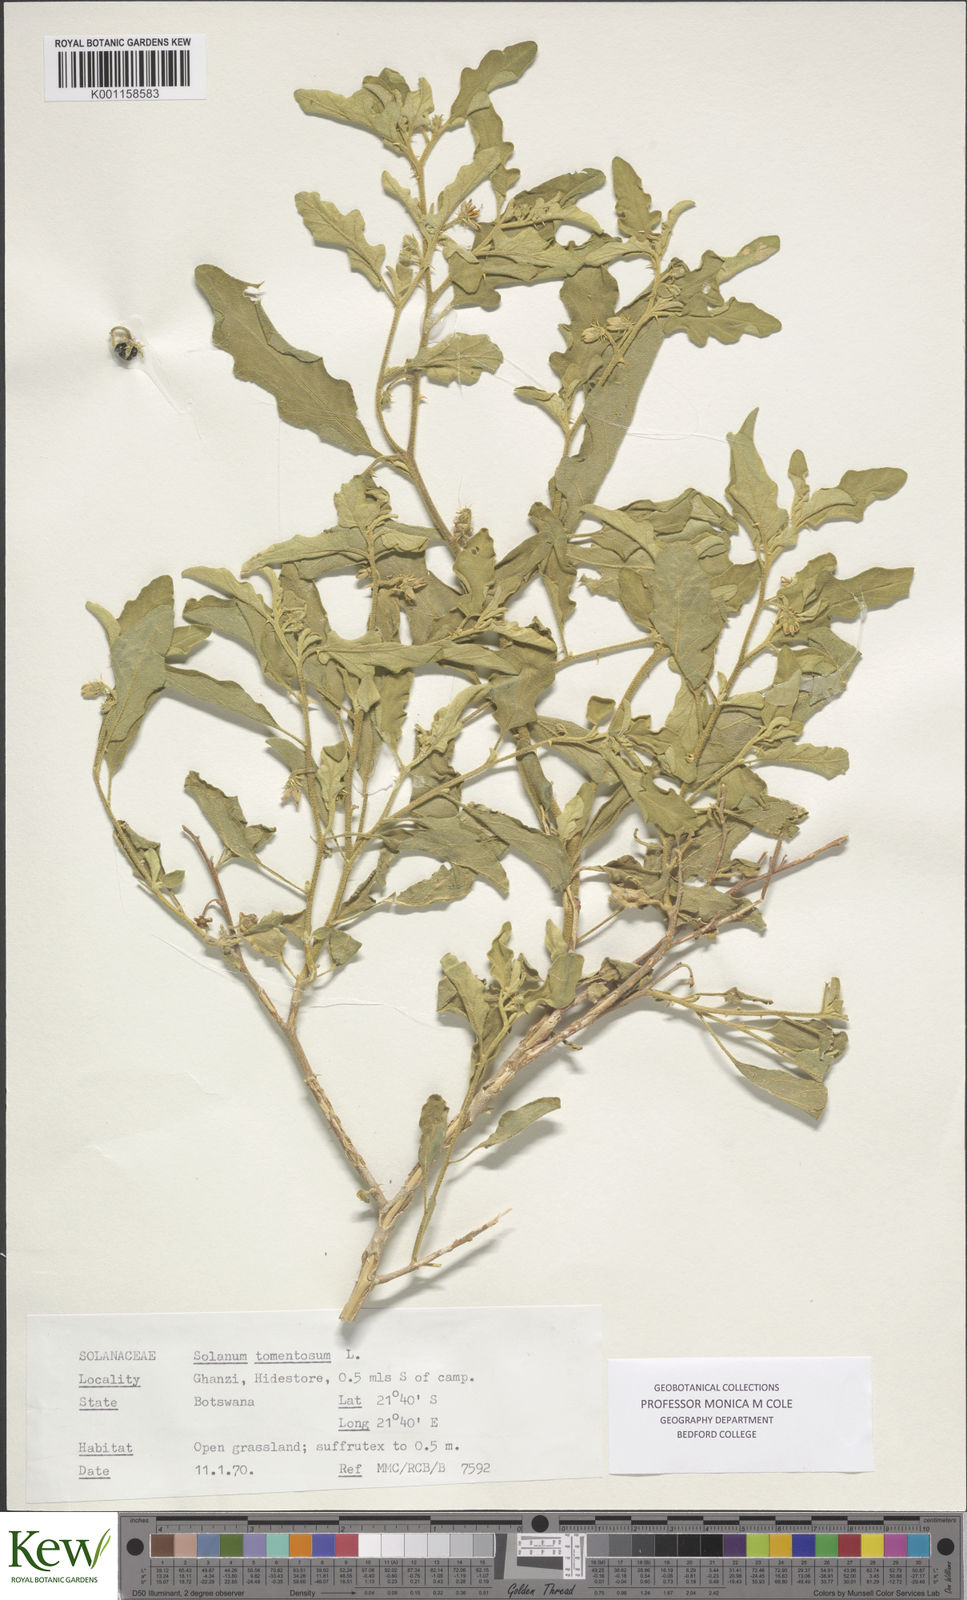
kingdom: Plantae
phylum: Tracheophyta
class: Magnoliopsida
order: Solanales
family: Solanaceae
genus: Solanum
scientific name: Solanum catombelense
